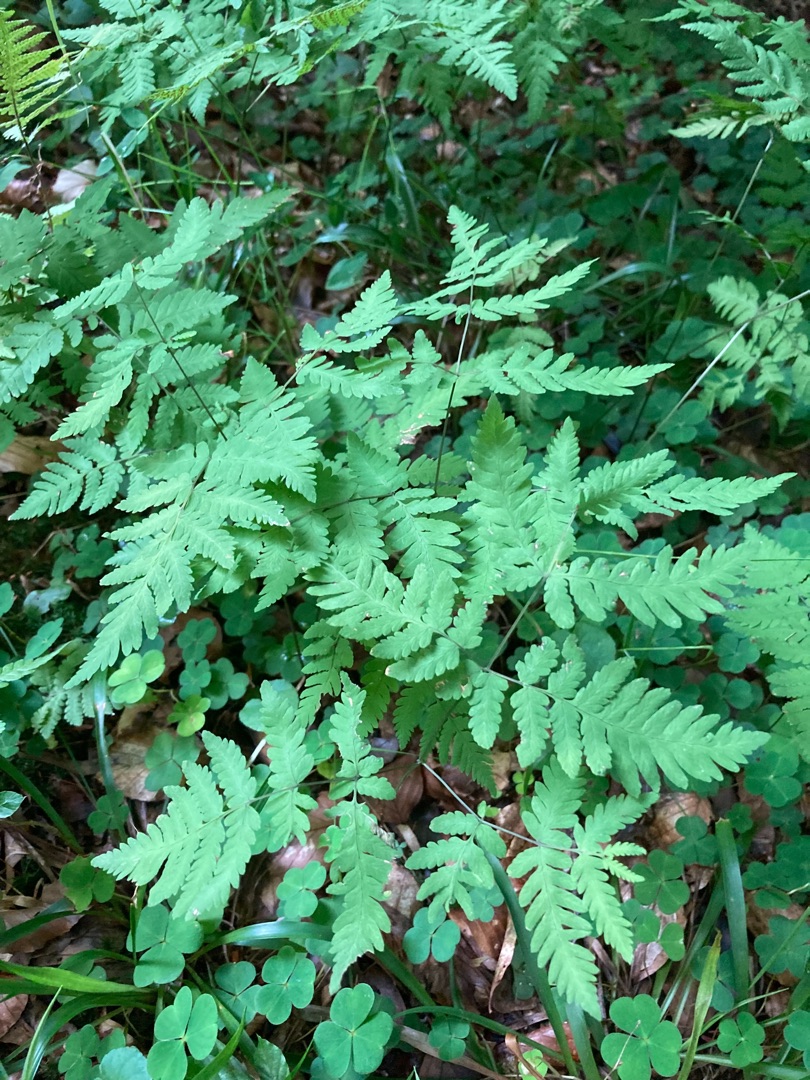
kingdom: Plantae
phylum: Tracheophyta
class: Polypodiopsida
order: Polypodiales
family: Cystopteridaceae
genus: Gymnocarpium
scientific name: Gymnocarpium dryopteris
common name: Tredelt egebregne
